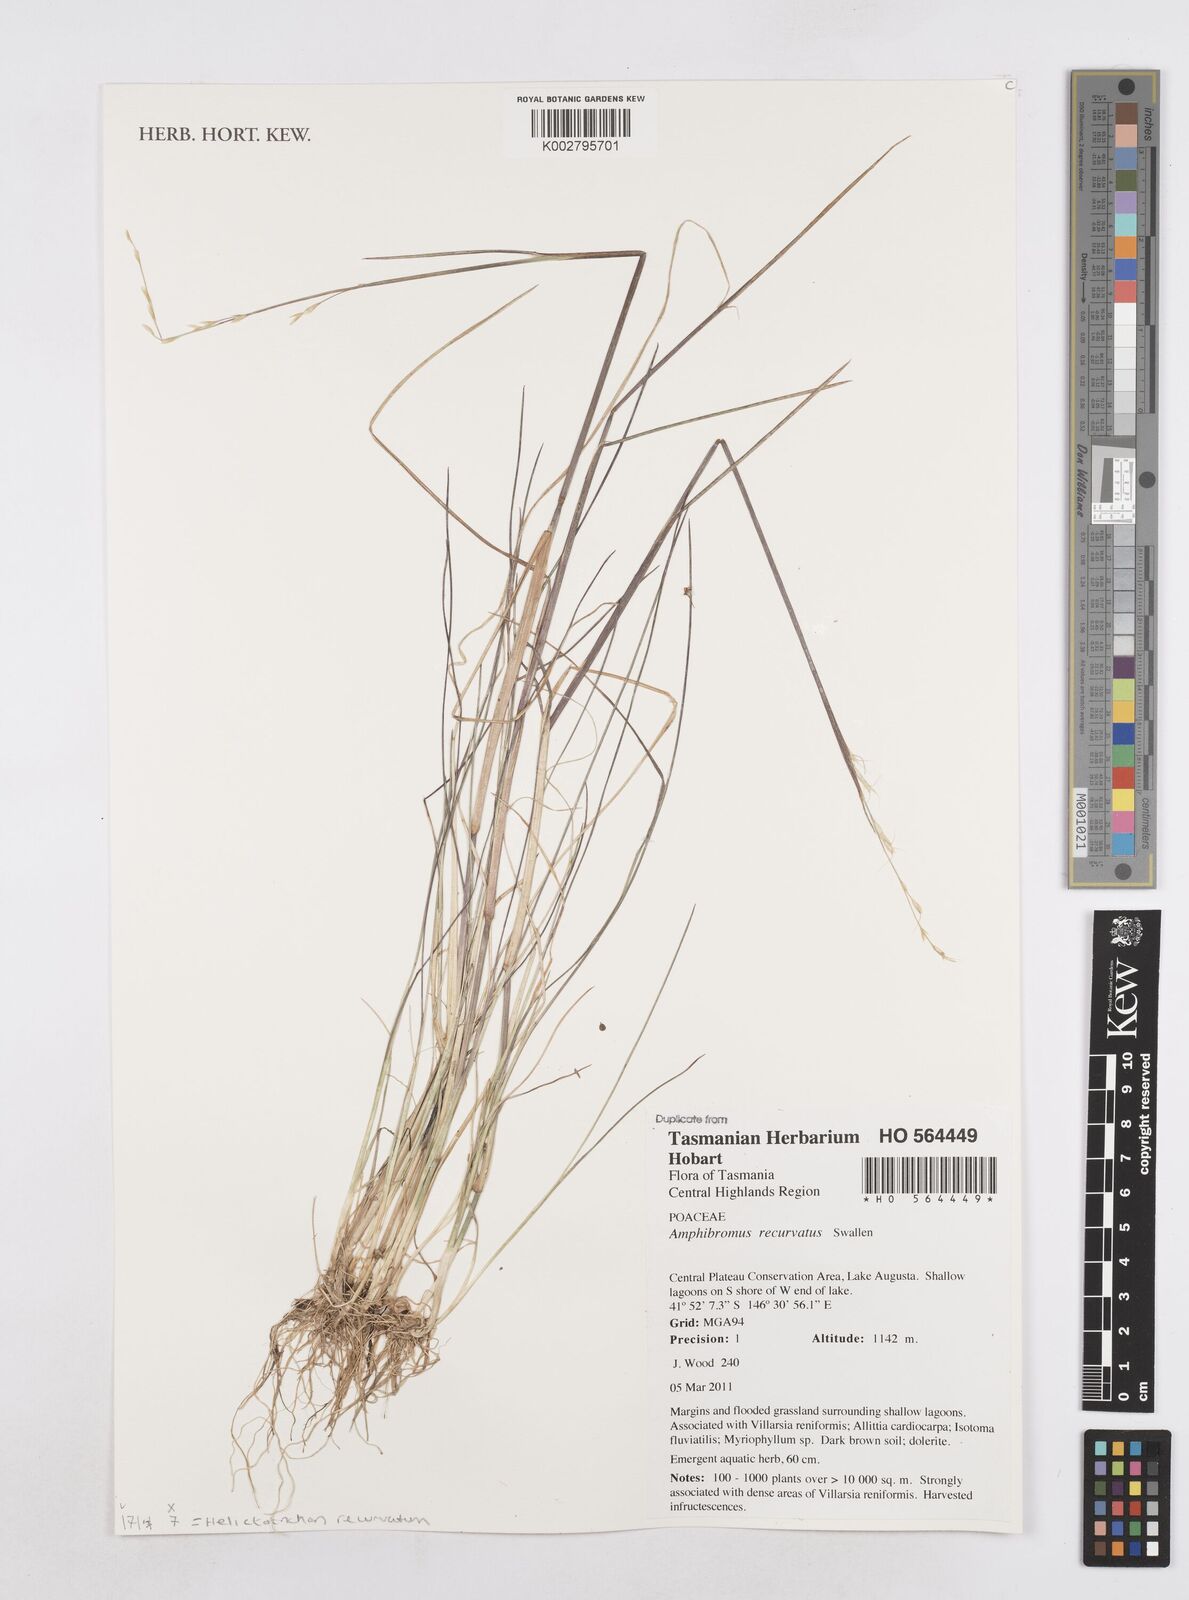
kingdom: Plantae
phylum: Tracheophyta
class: Liliopsida
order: Poales
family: Poaceae
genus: Amphibromus
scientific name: Amphibromus recurvatus
